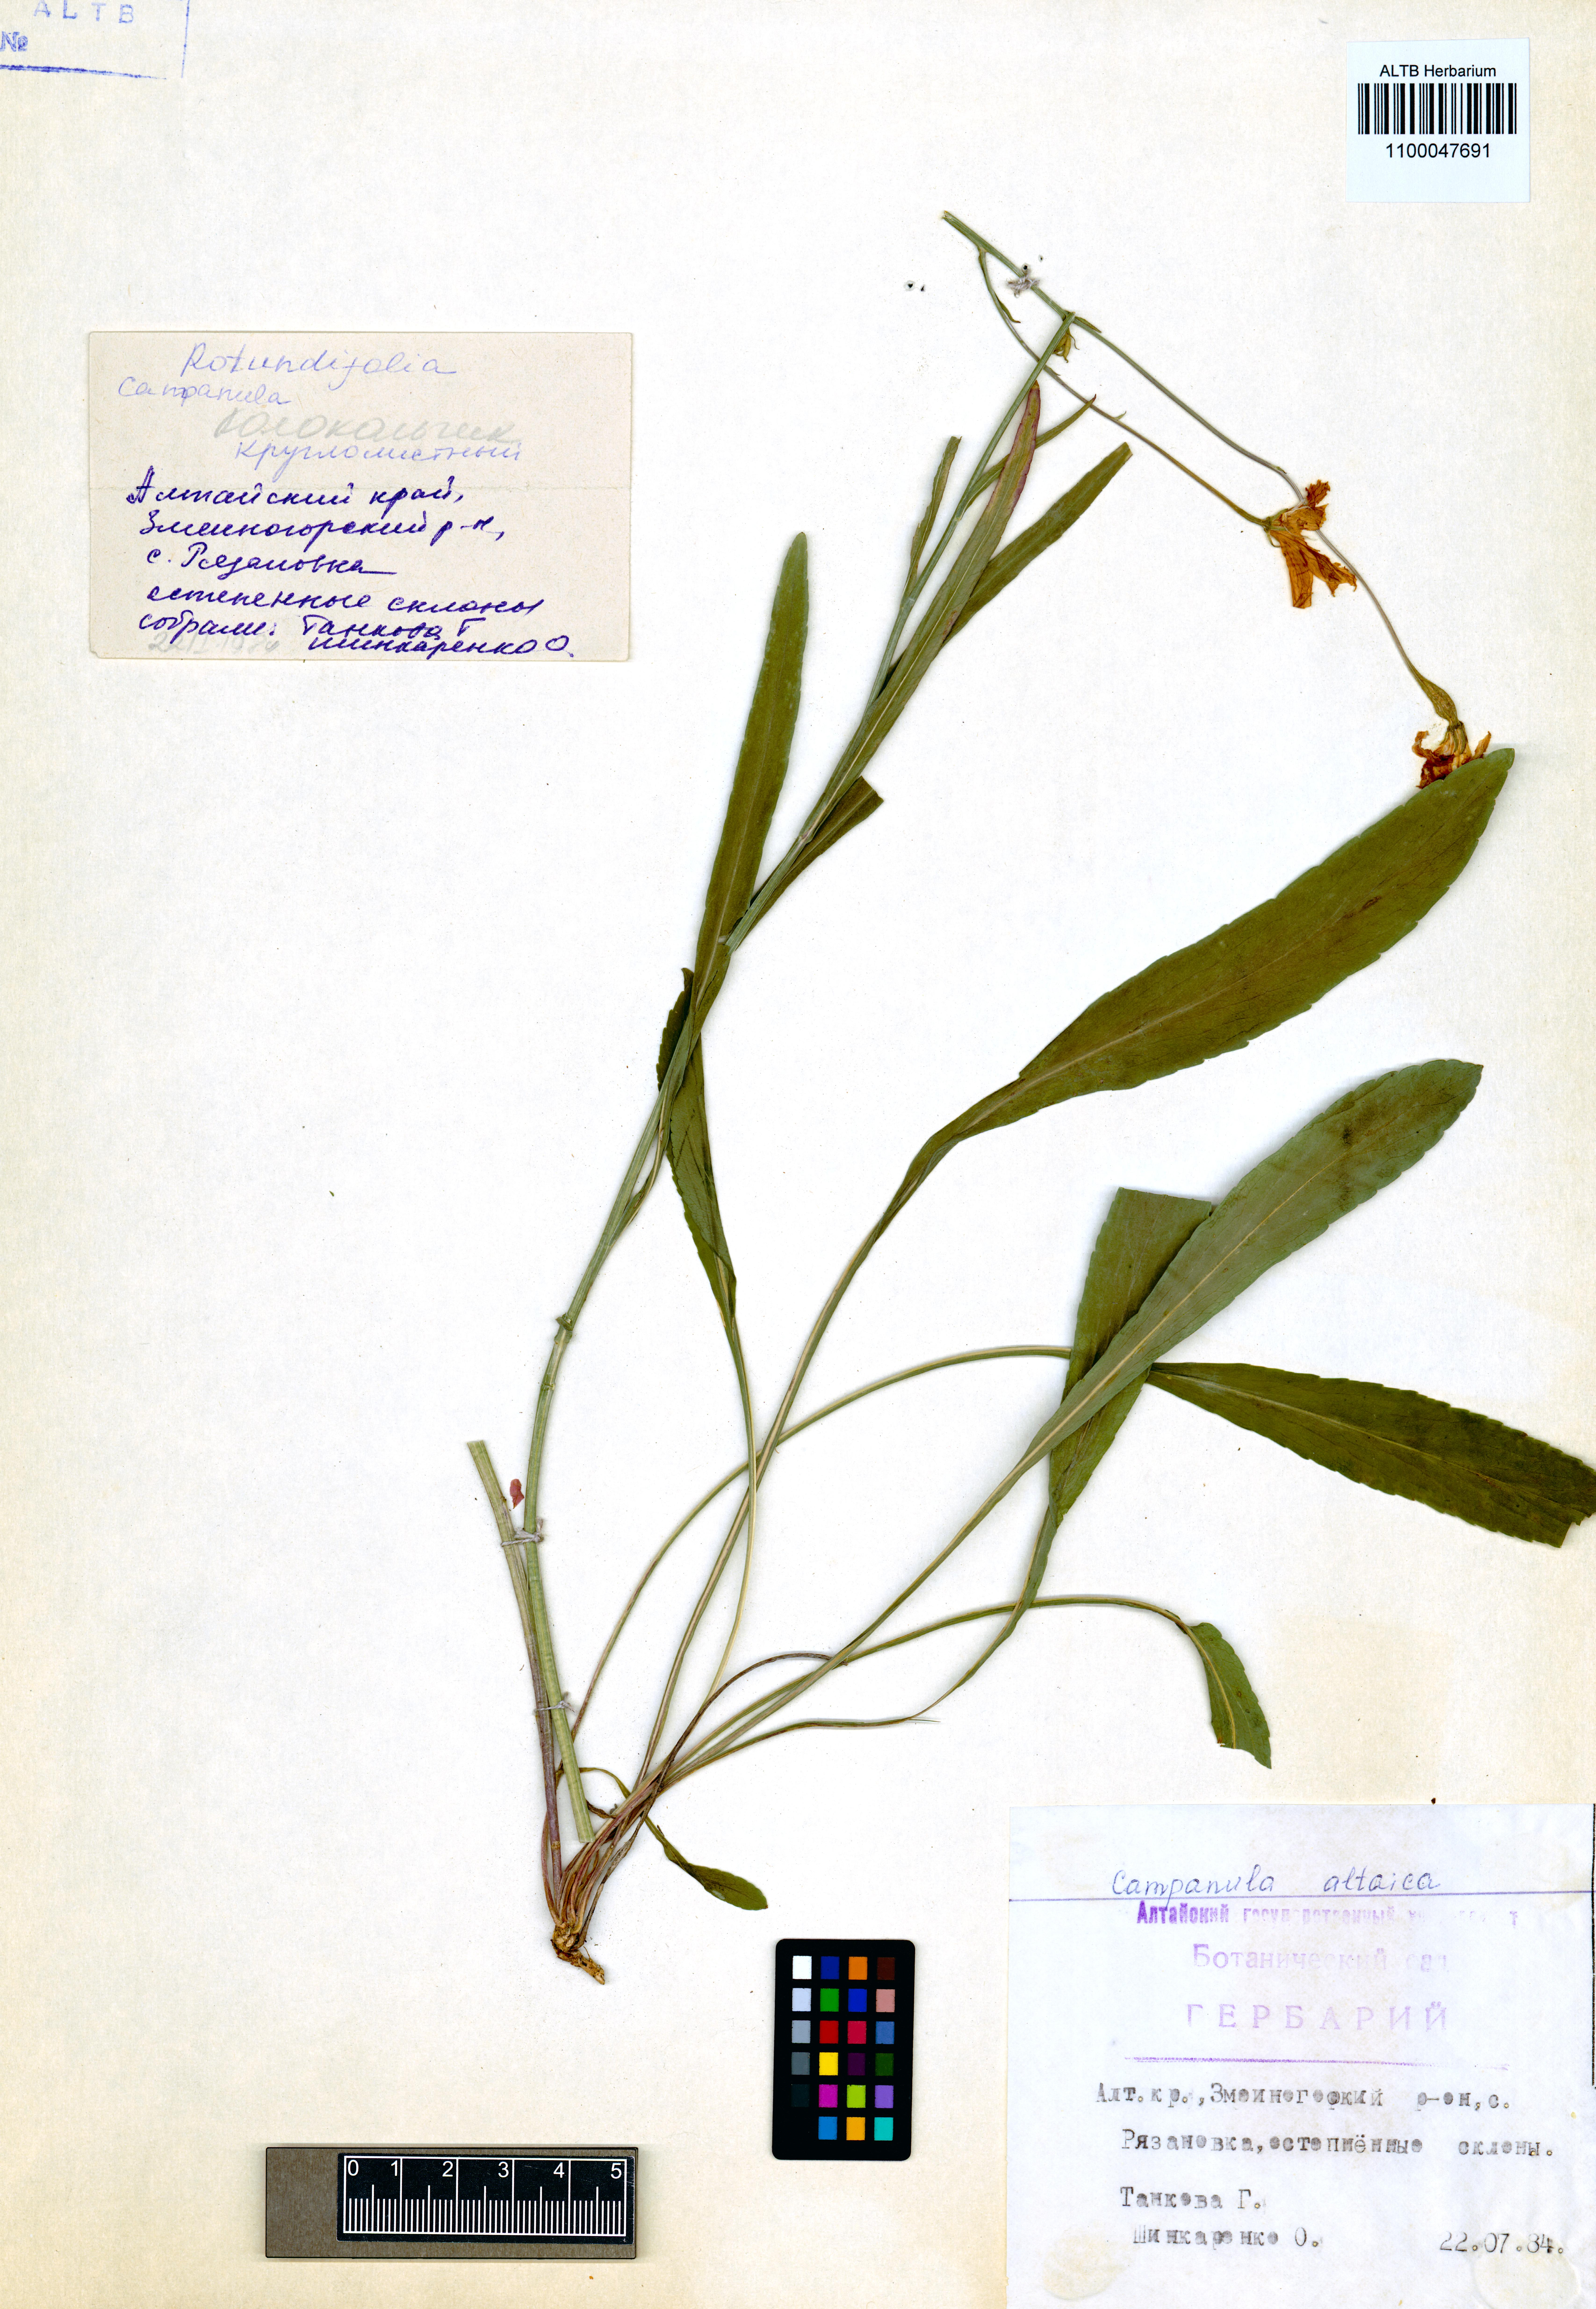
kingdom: Plantae
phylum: Tracheophyta
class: Magnoliopsida
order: Asterales
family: Campanulaceae
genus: Campanula
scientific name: Campanula stevenii
